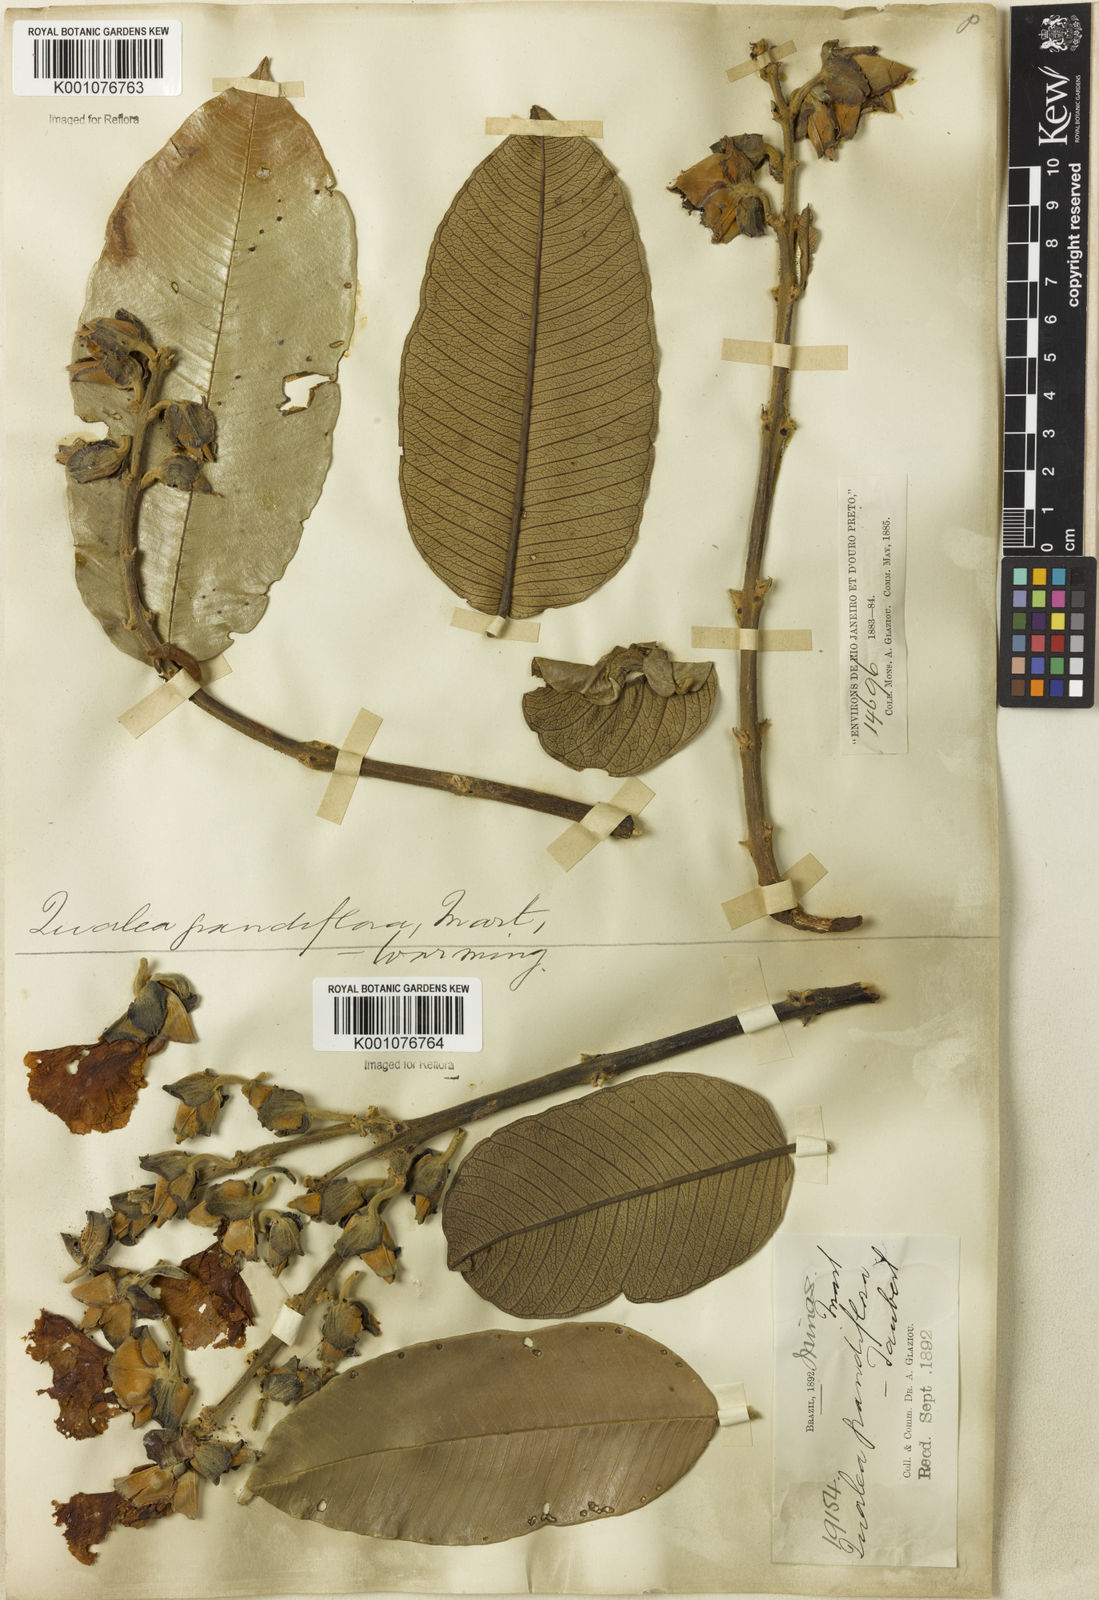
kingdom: Plantae
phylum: Tracheophyta
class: Magnoliopsida
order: Myrtales
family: Vochysiaceae
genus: Qualea
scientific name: Qualea grandiflora
